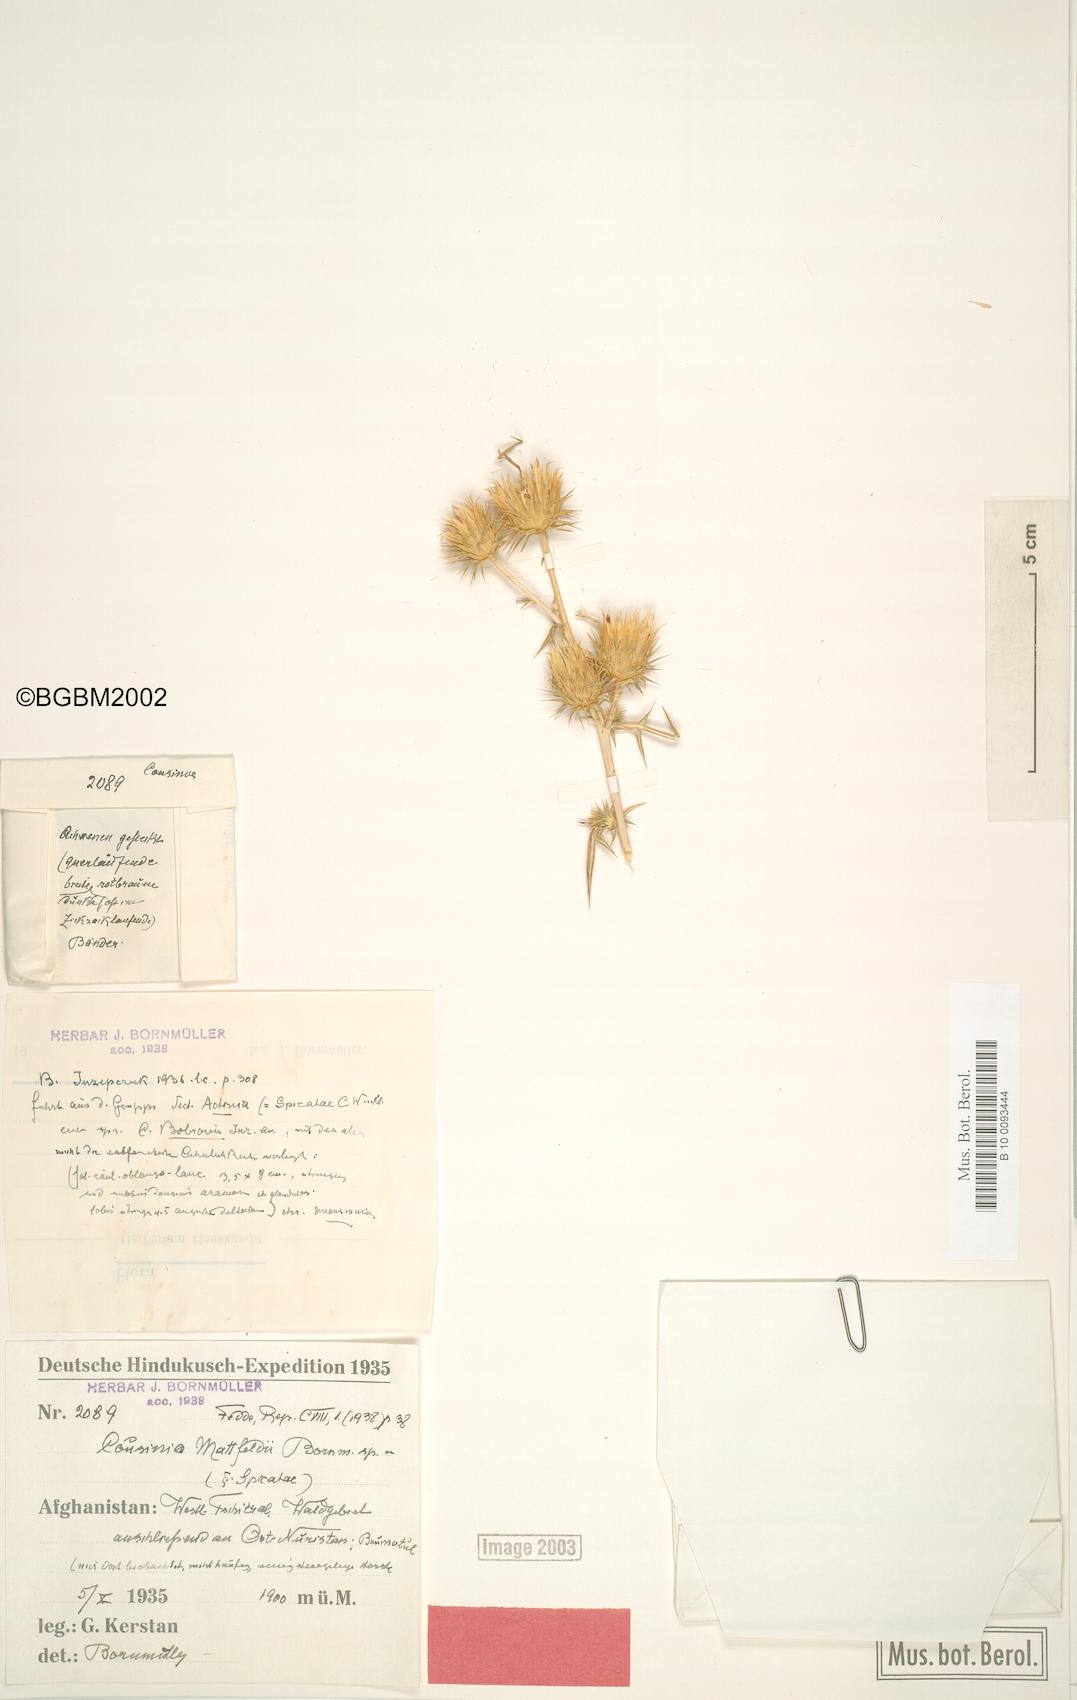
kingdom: Plantae
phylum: Tracheophyta
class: Magnoliopsida
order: Asterales
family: Asteraceae
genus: Cousinia
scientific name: Cousinia mattfeldii
